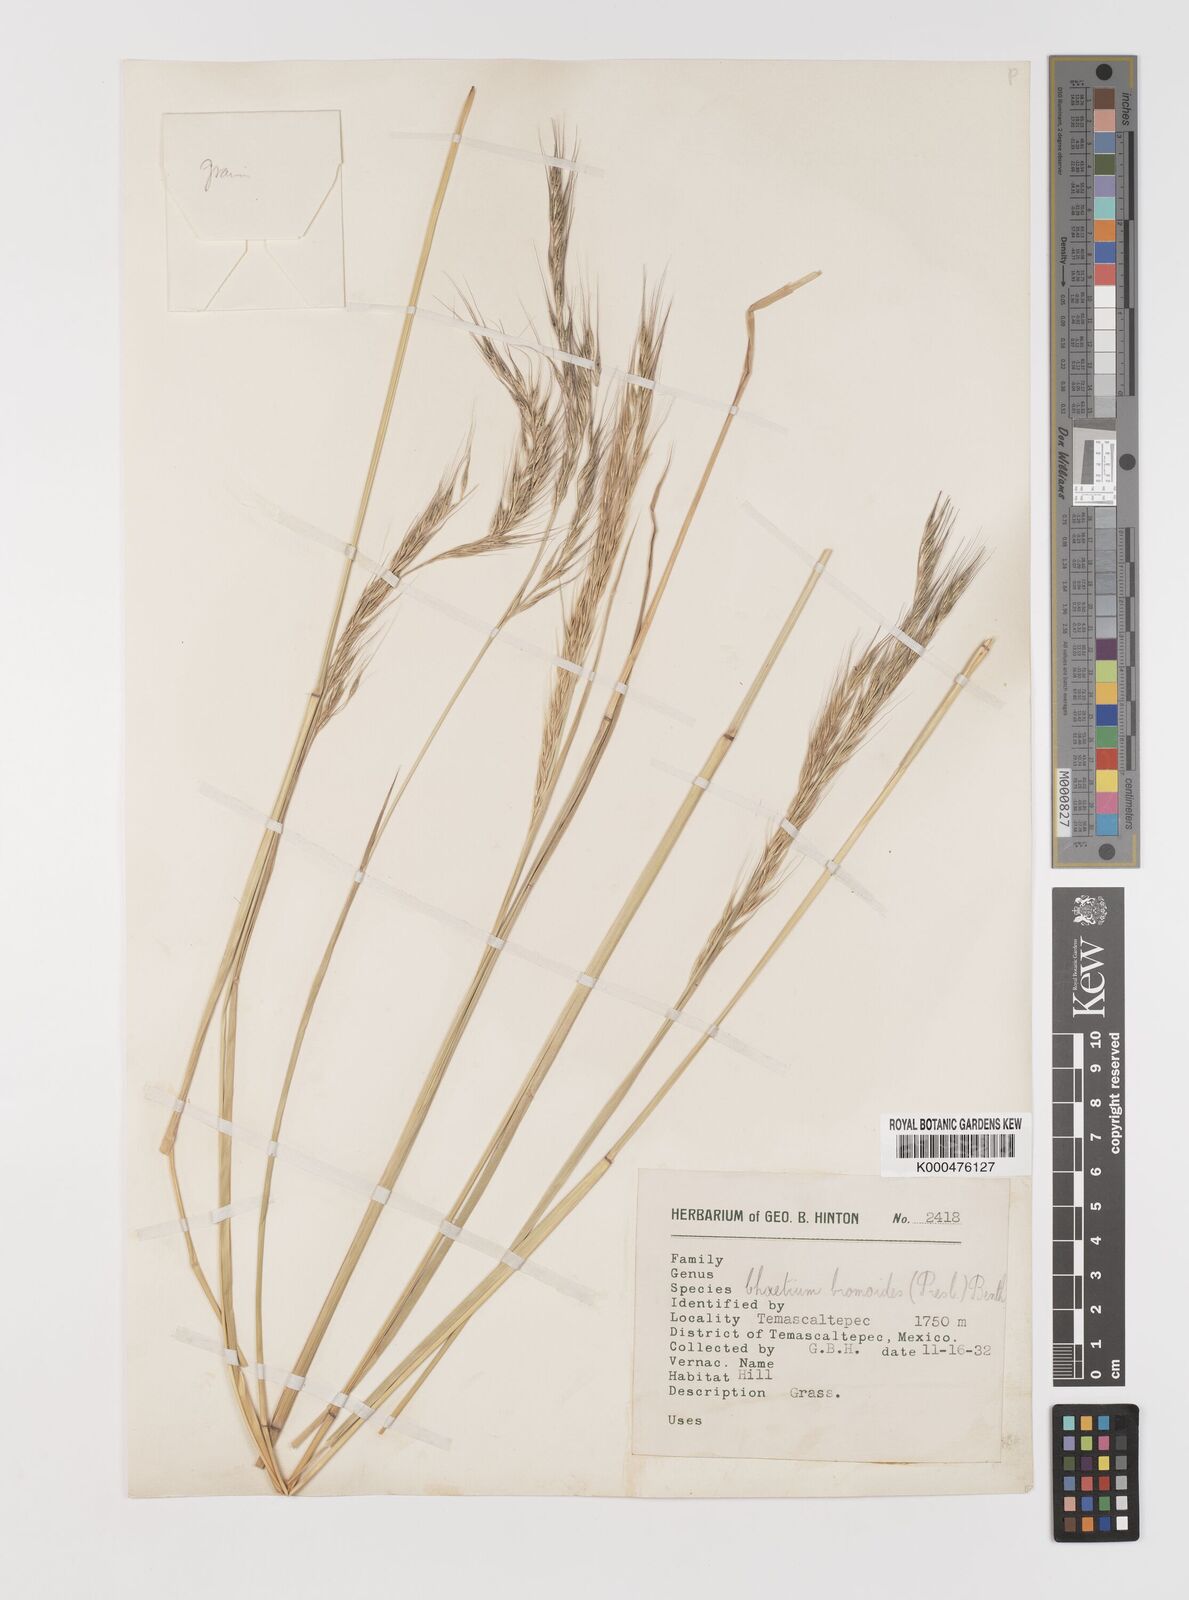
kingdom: Plantae
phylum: Tracheophyta
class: Liliopsida
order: Poales
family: Poaceae
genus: Chaetium
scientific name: Chaetium
